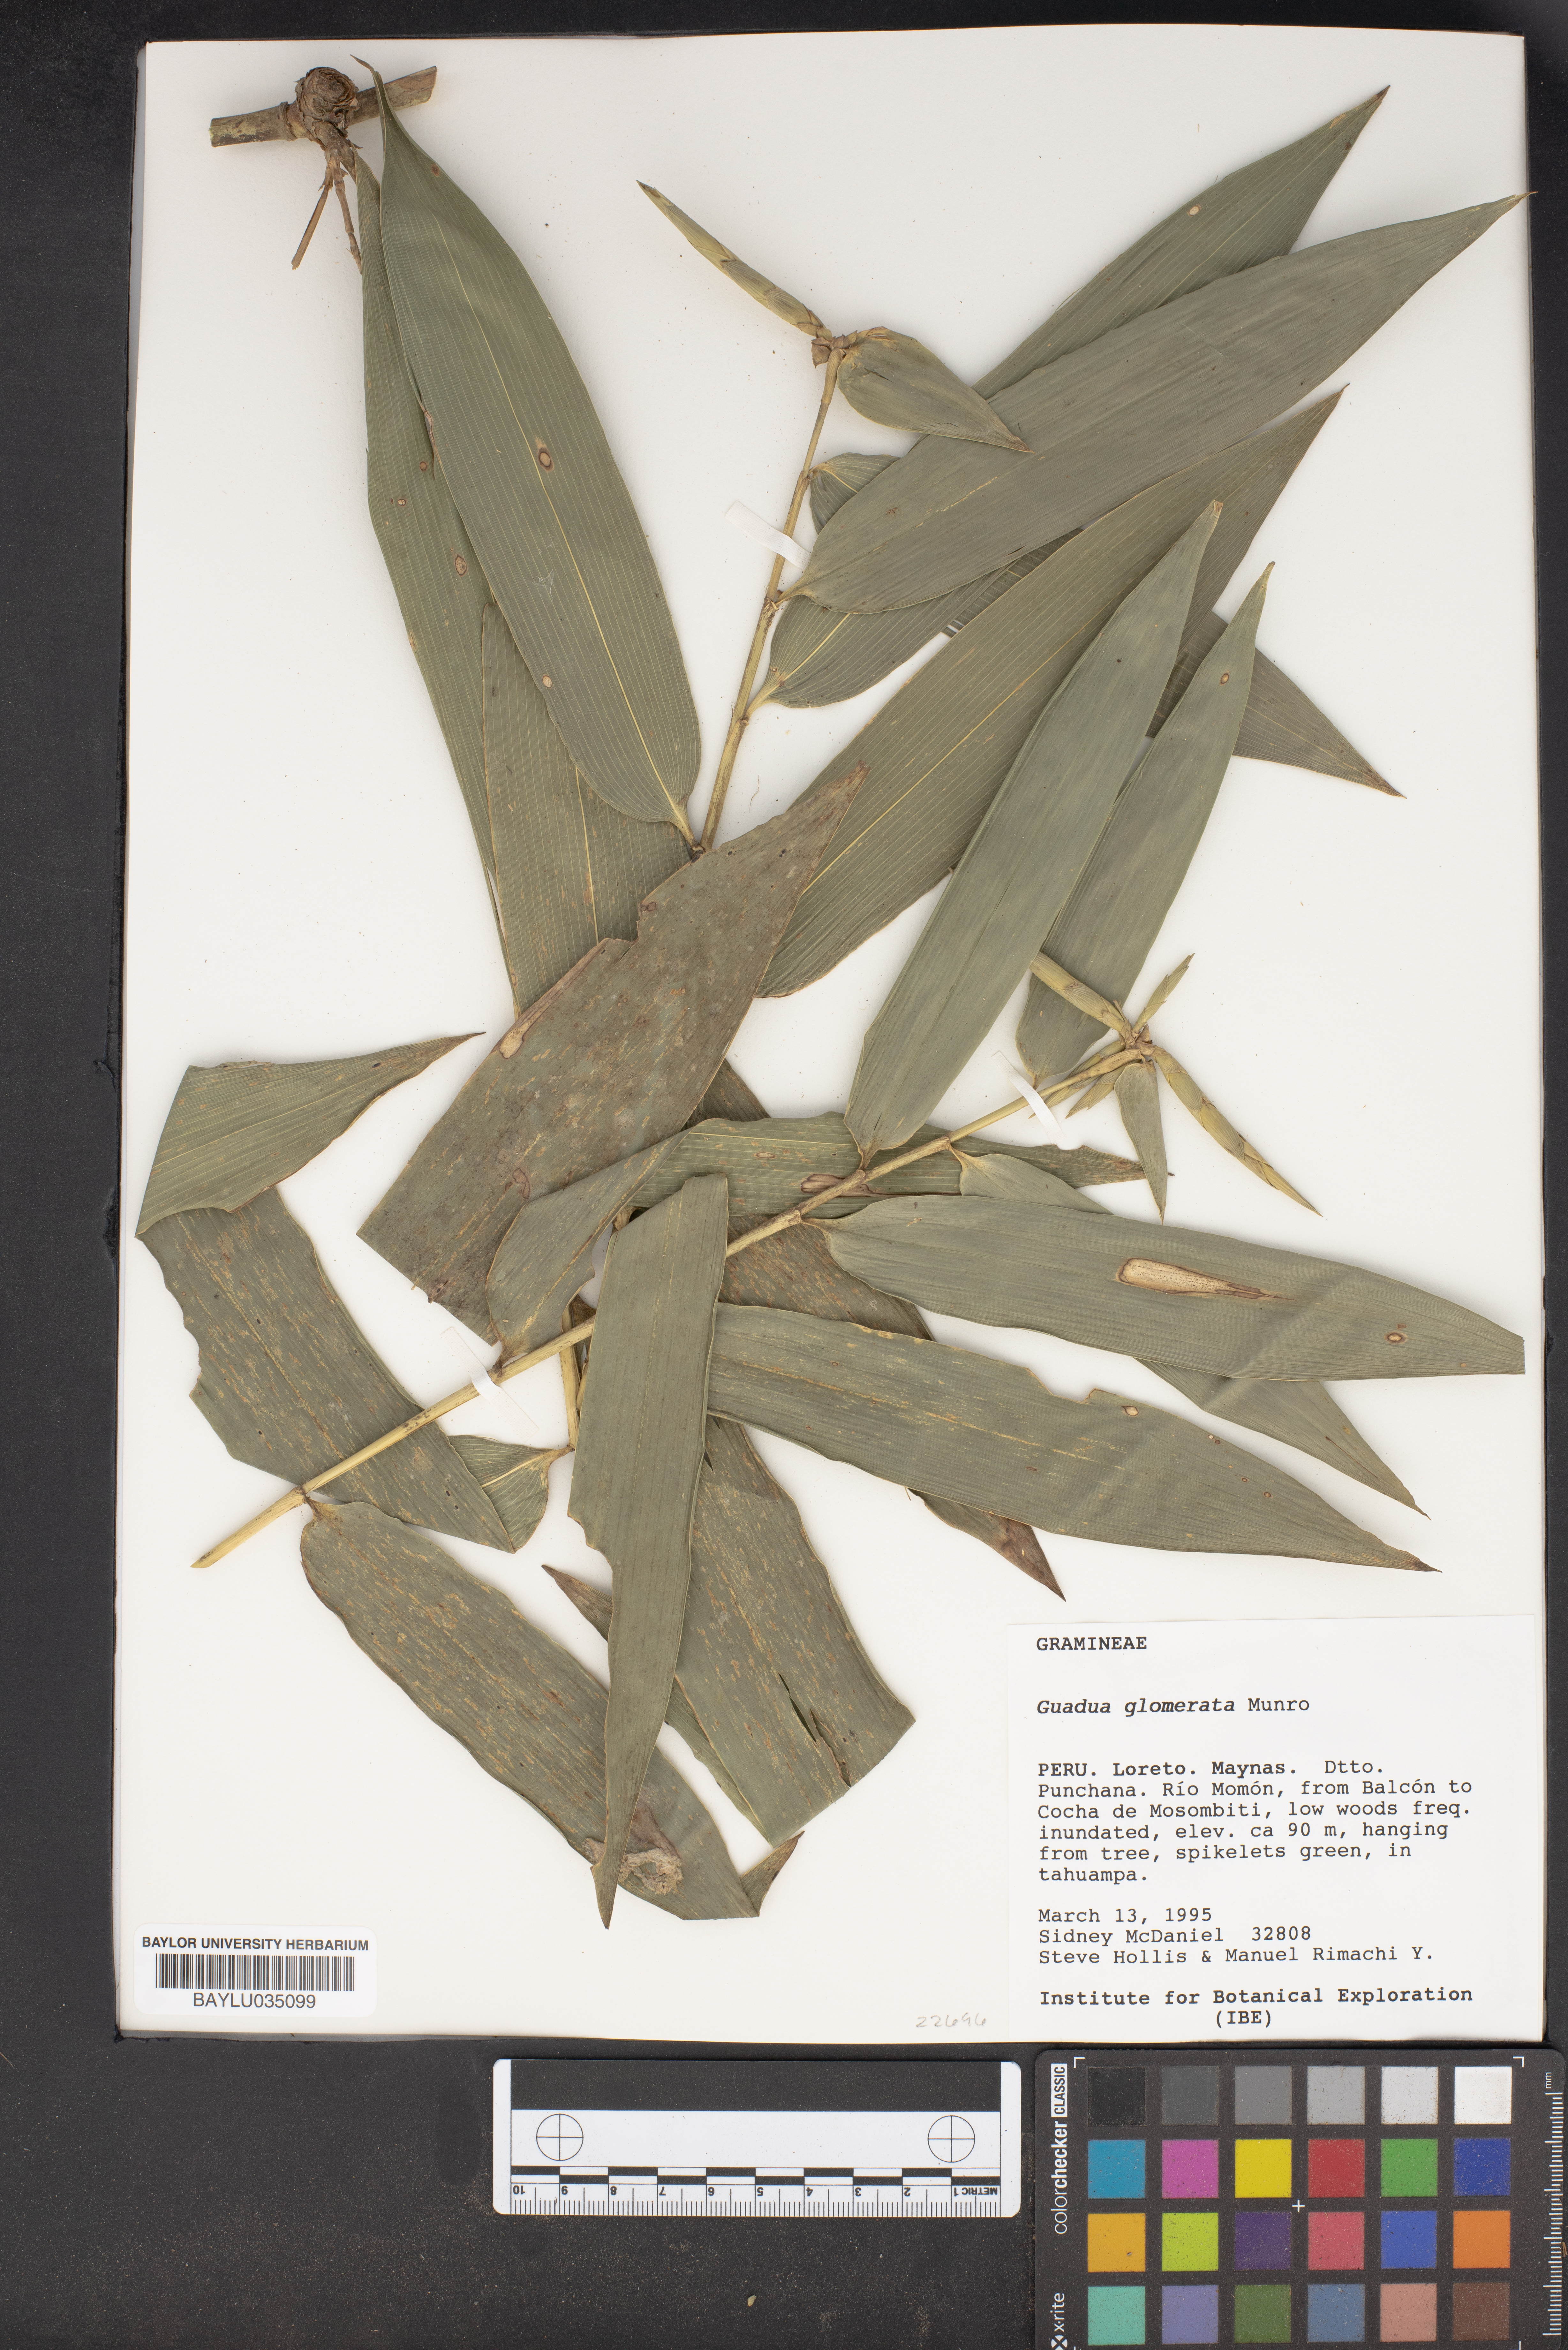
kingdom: Plantae
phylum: Tracheophyta
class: Liliopsida
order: Poales
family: Poaceae
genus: Guadua
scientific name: Guadua glomerata
